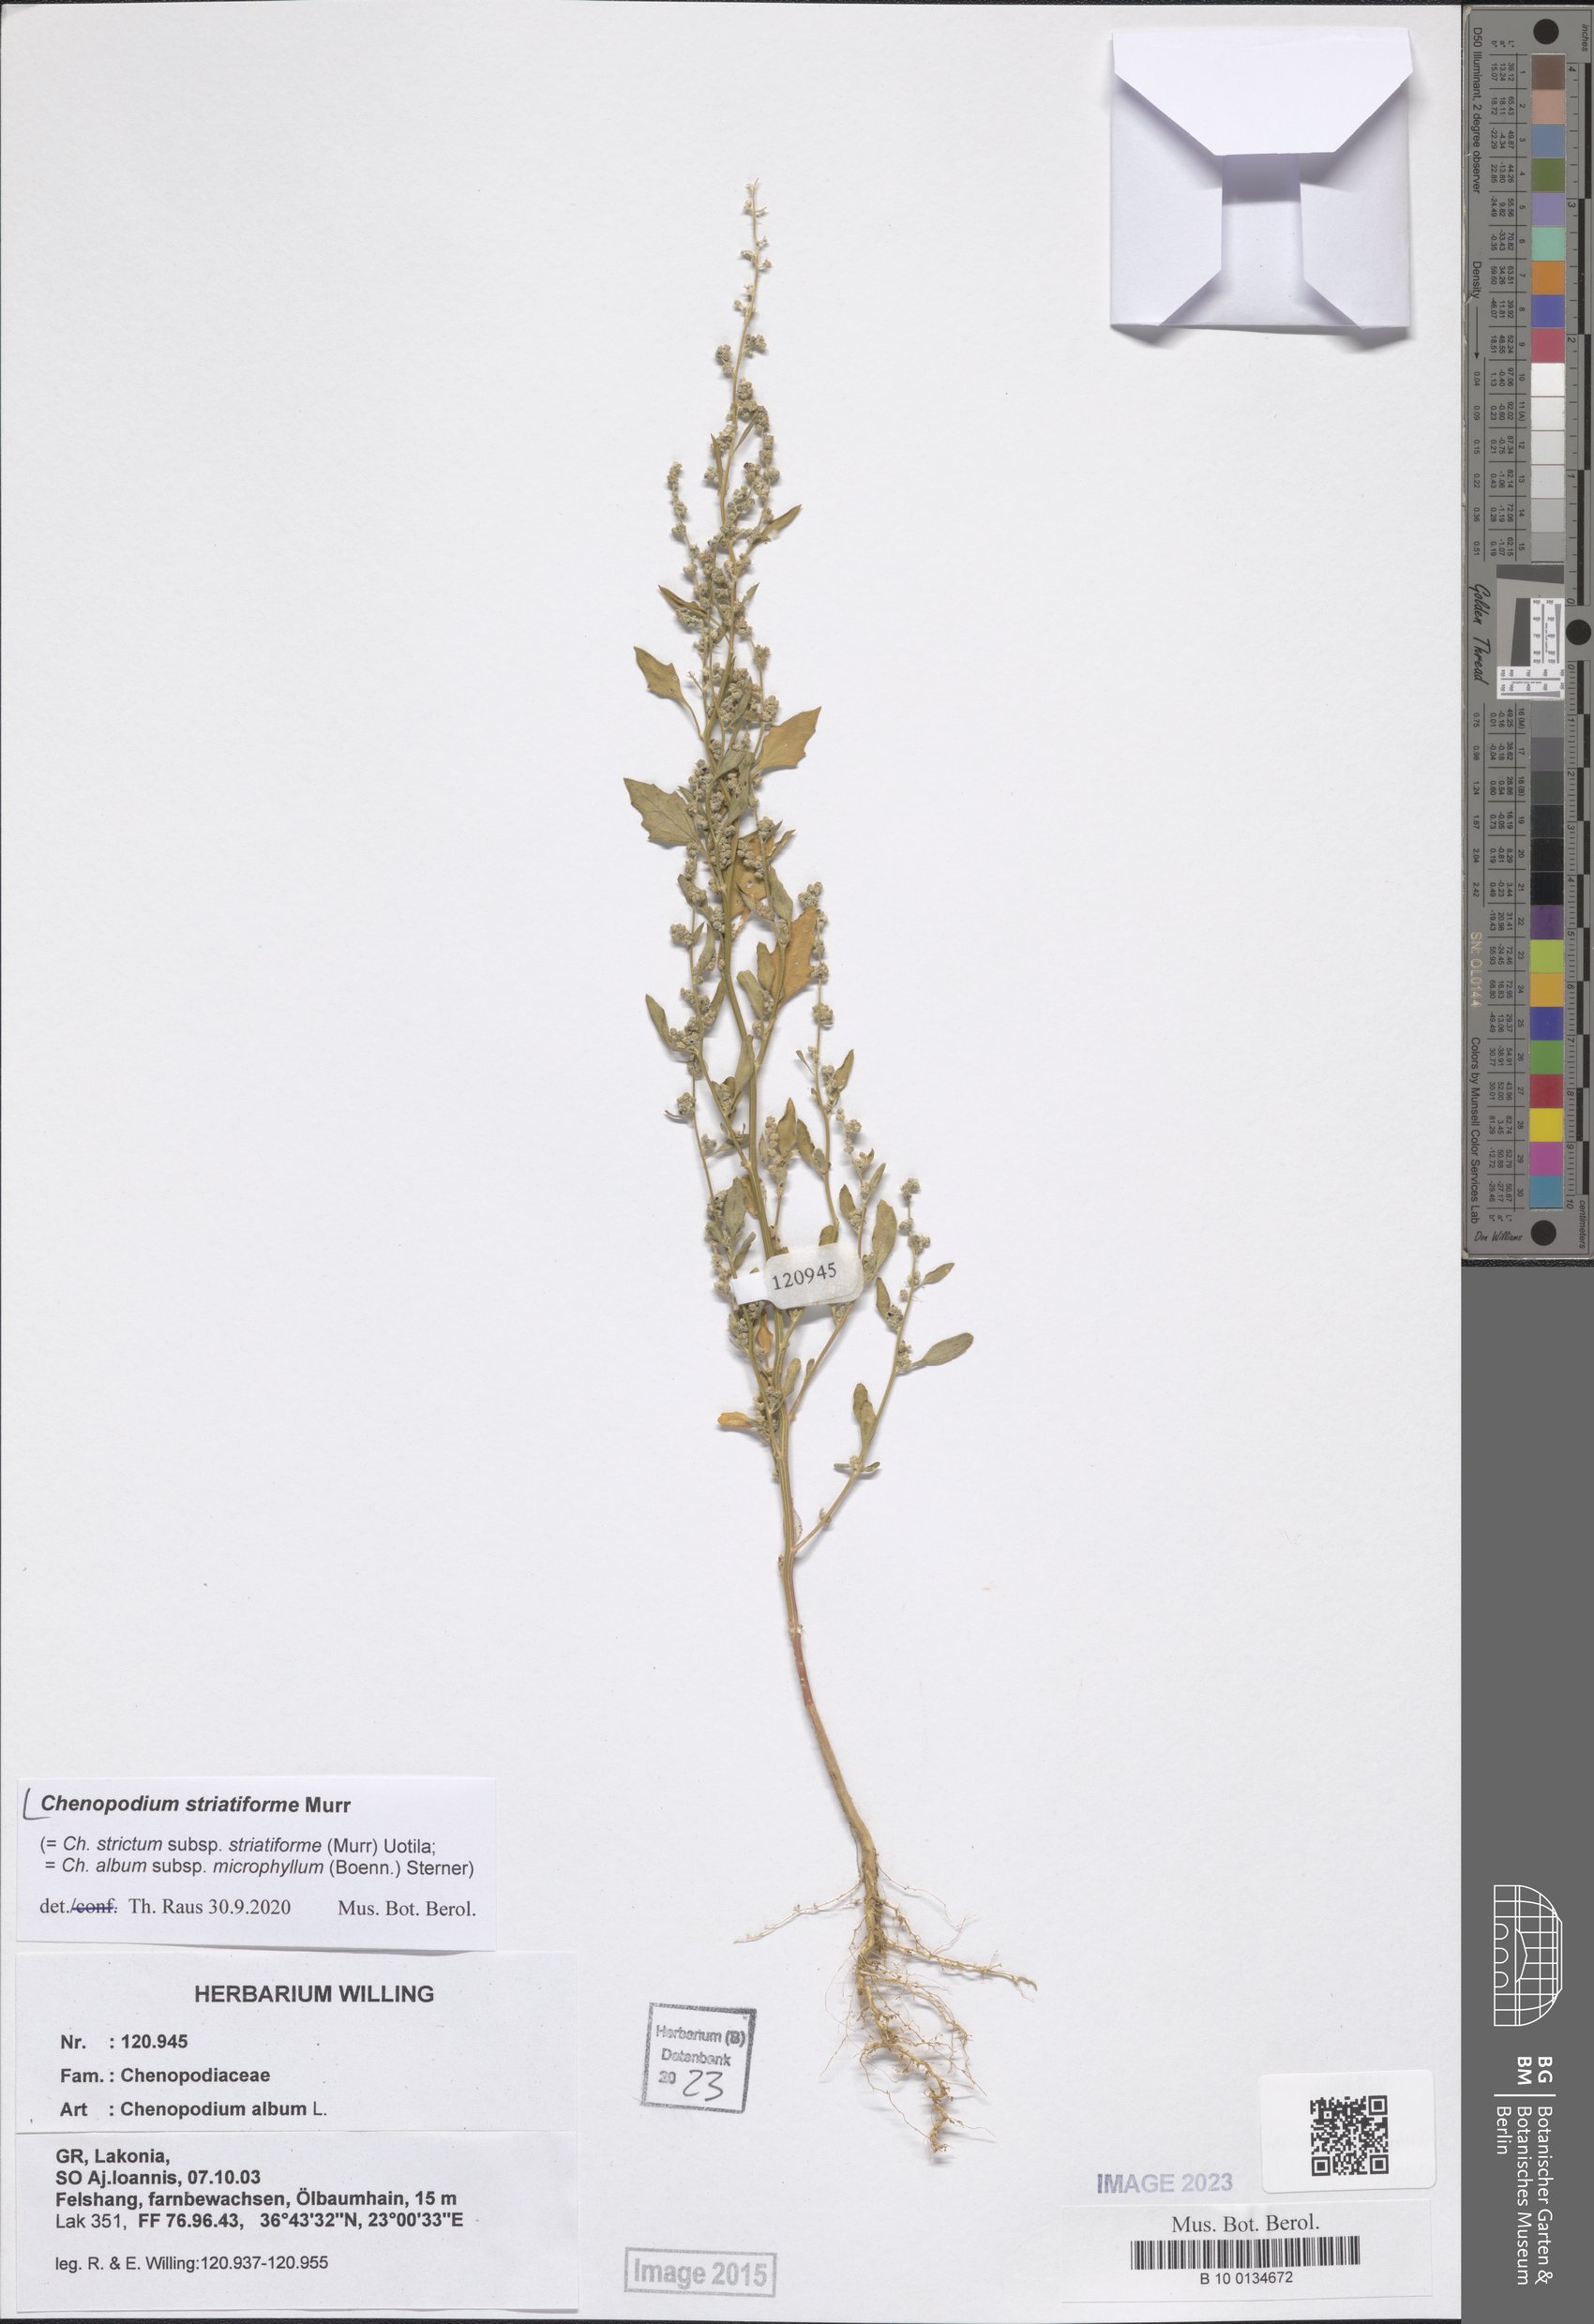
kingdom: Plantae
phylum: Tracheophyta
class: Magnoliopsida
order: Caryophyllales
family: Amaranthaceae
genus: Chenopodium
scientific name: Chenopodium striatiforme
